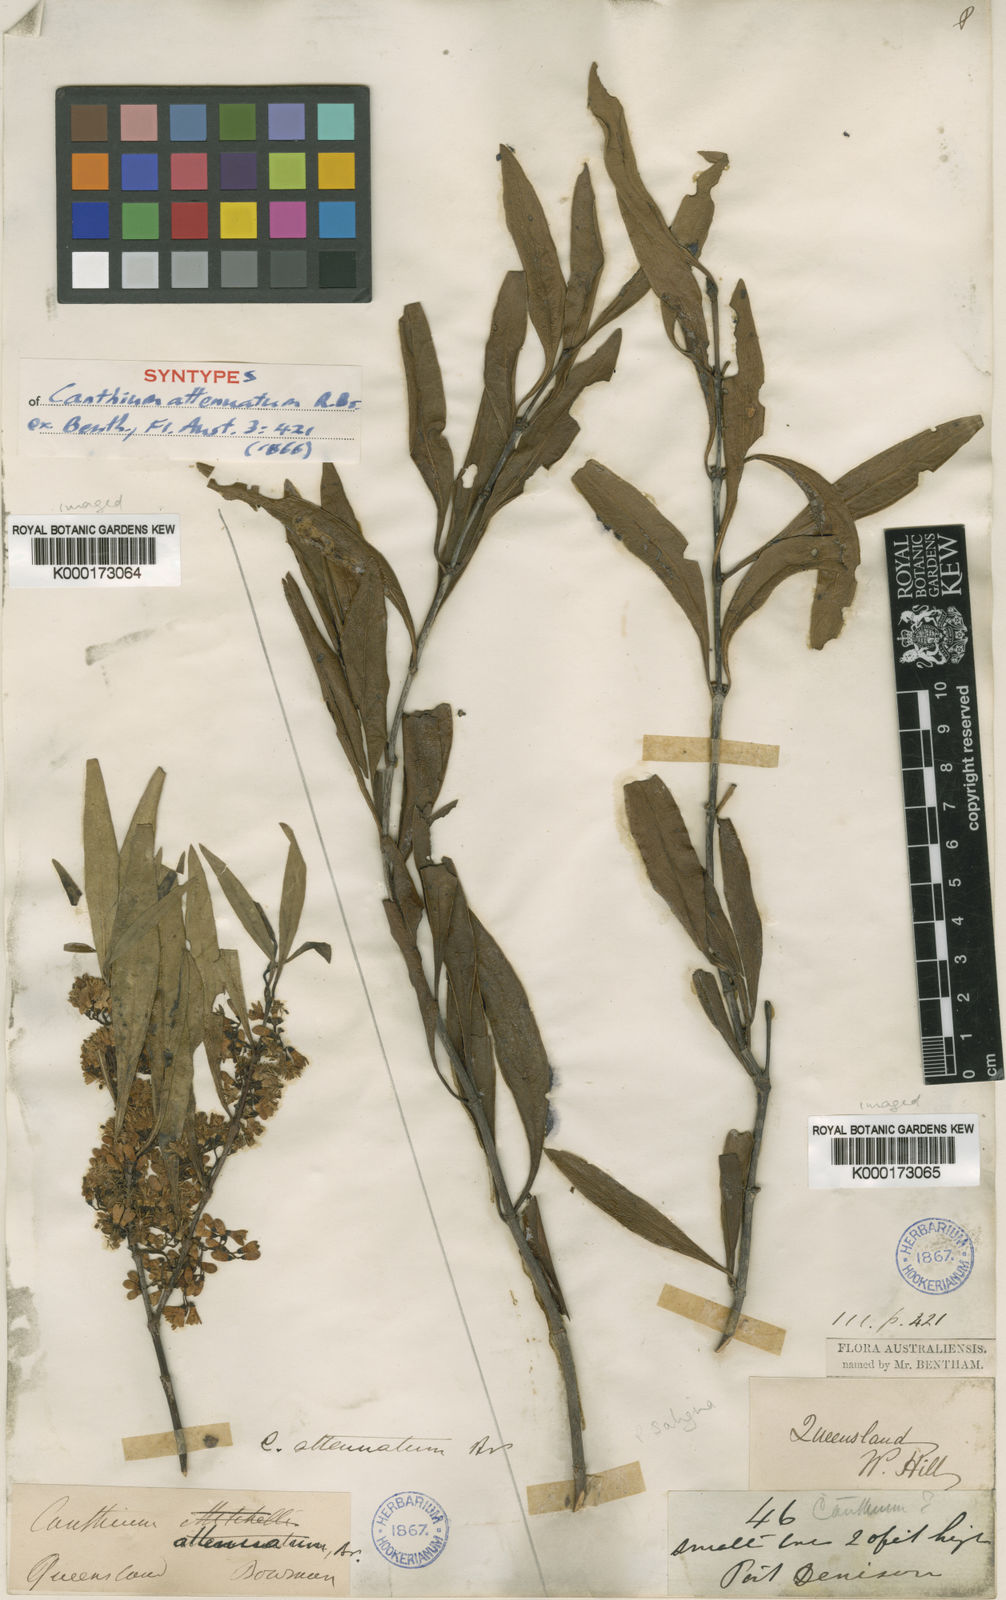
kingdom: Plantae
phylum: Tracheophyta
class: Magnoliopsida
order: Gentianales
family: Rubiaceae
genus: Psydrax
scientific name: Psydrax salignus
